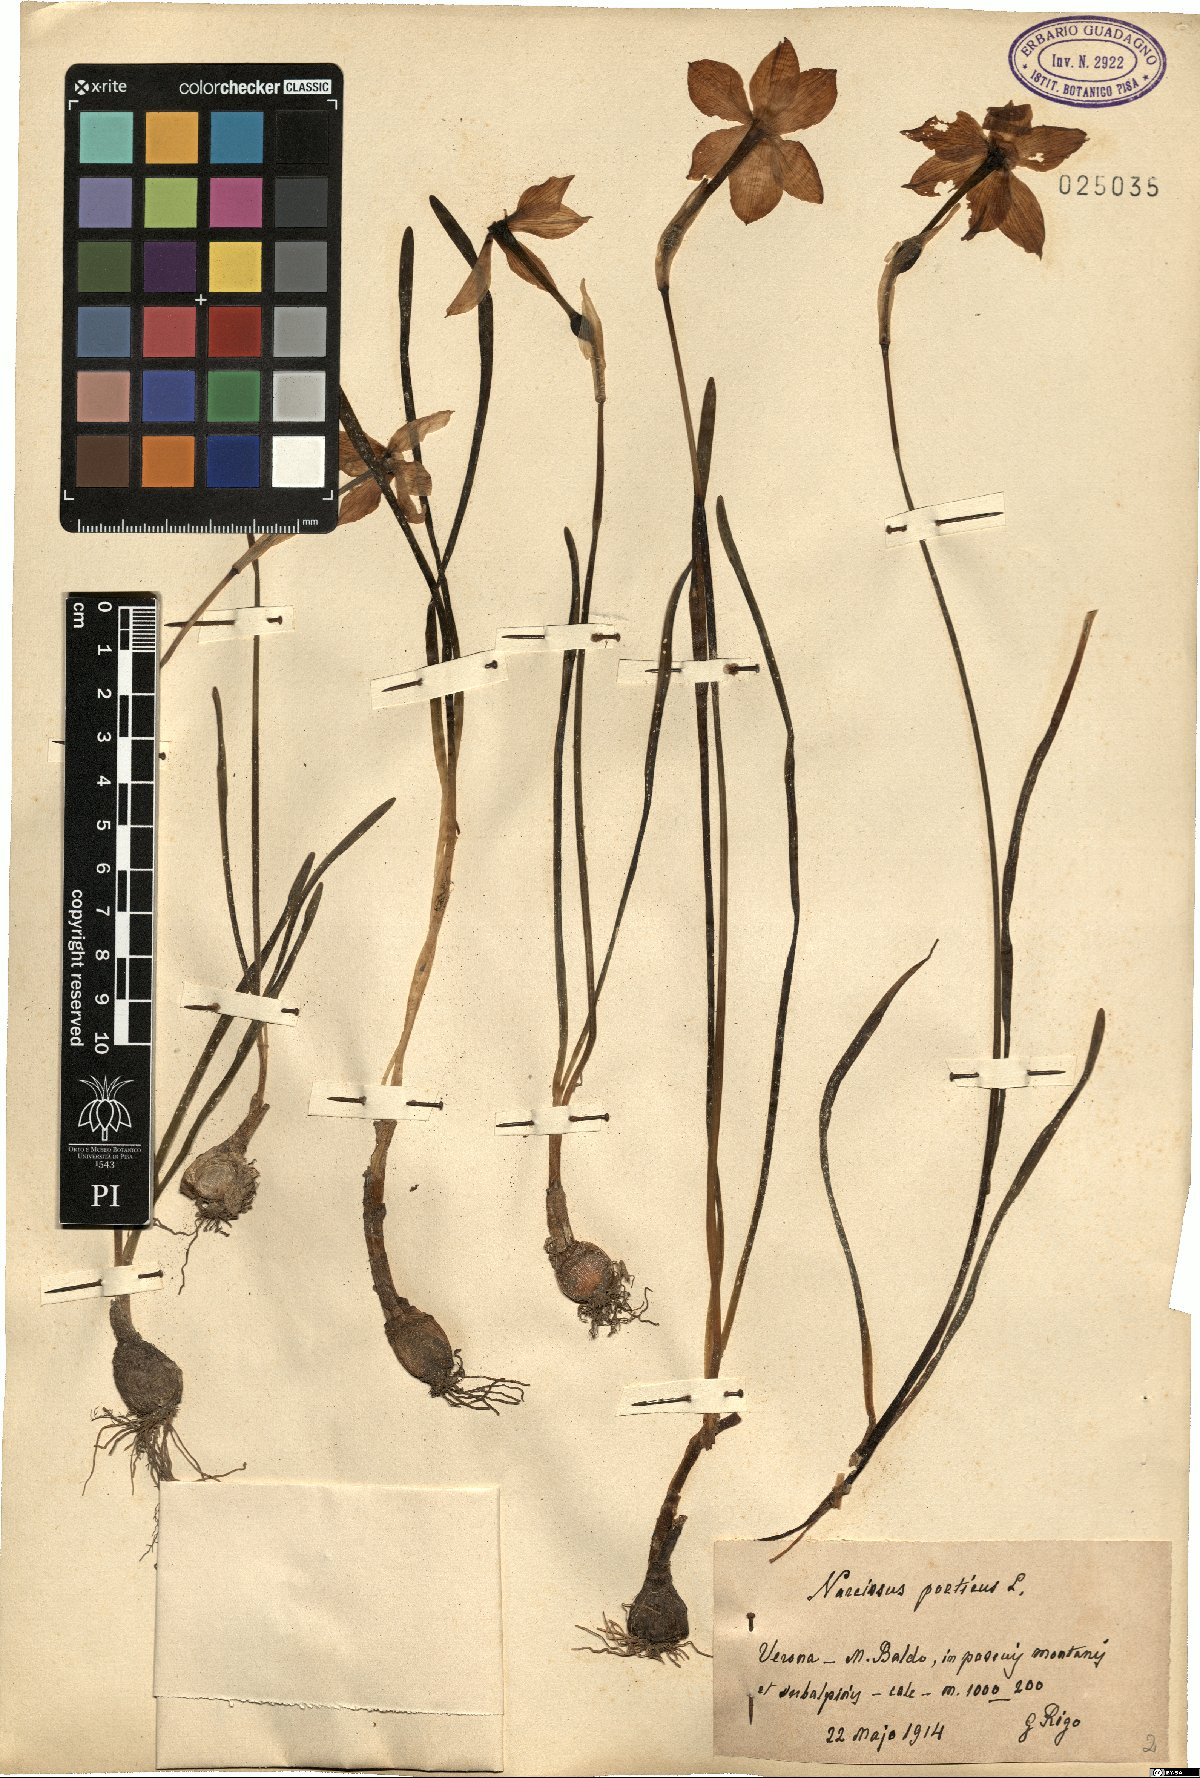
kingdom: Plantae
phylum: Tracheophyta
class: Liliopsida
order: Asparagales
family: Amaryllidaceae
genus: Narcissus
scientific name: Narcissus poeticus
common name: Pheasant's-eye daffodil
